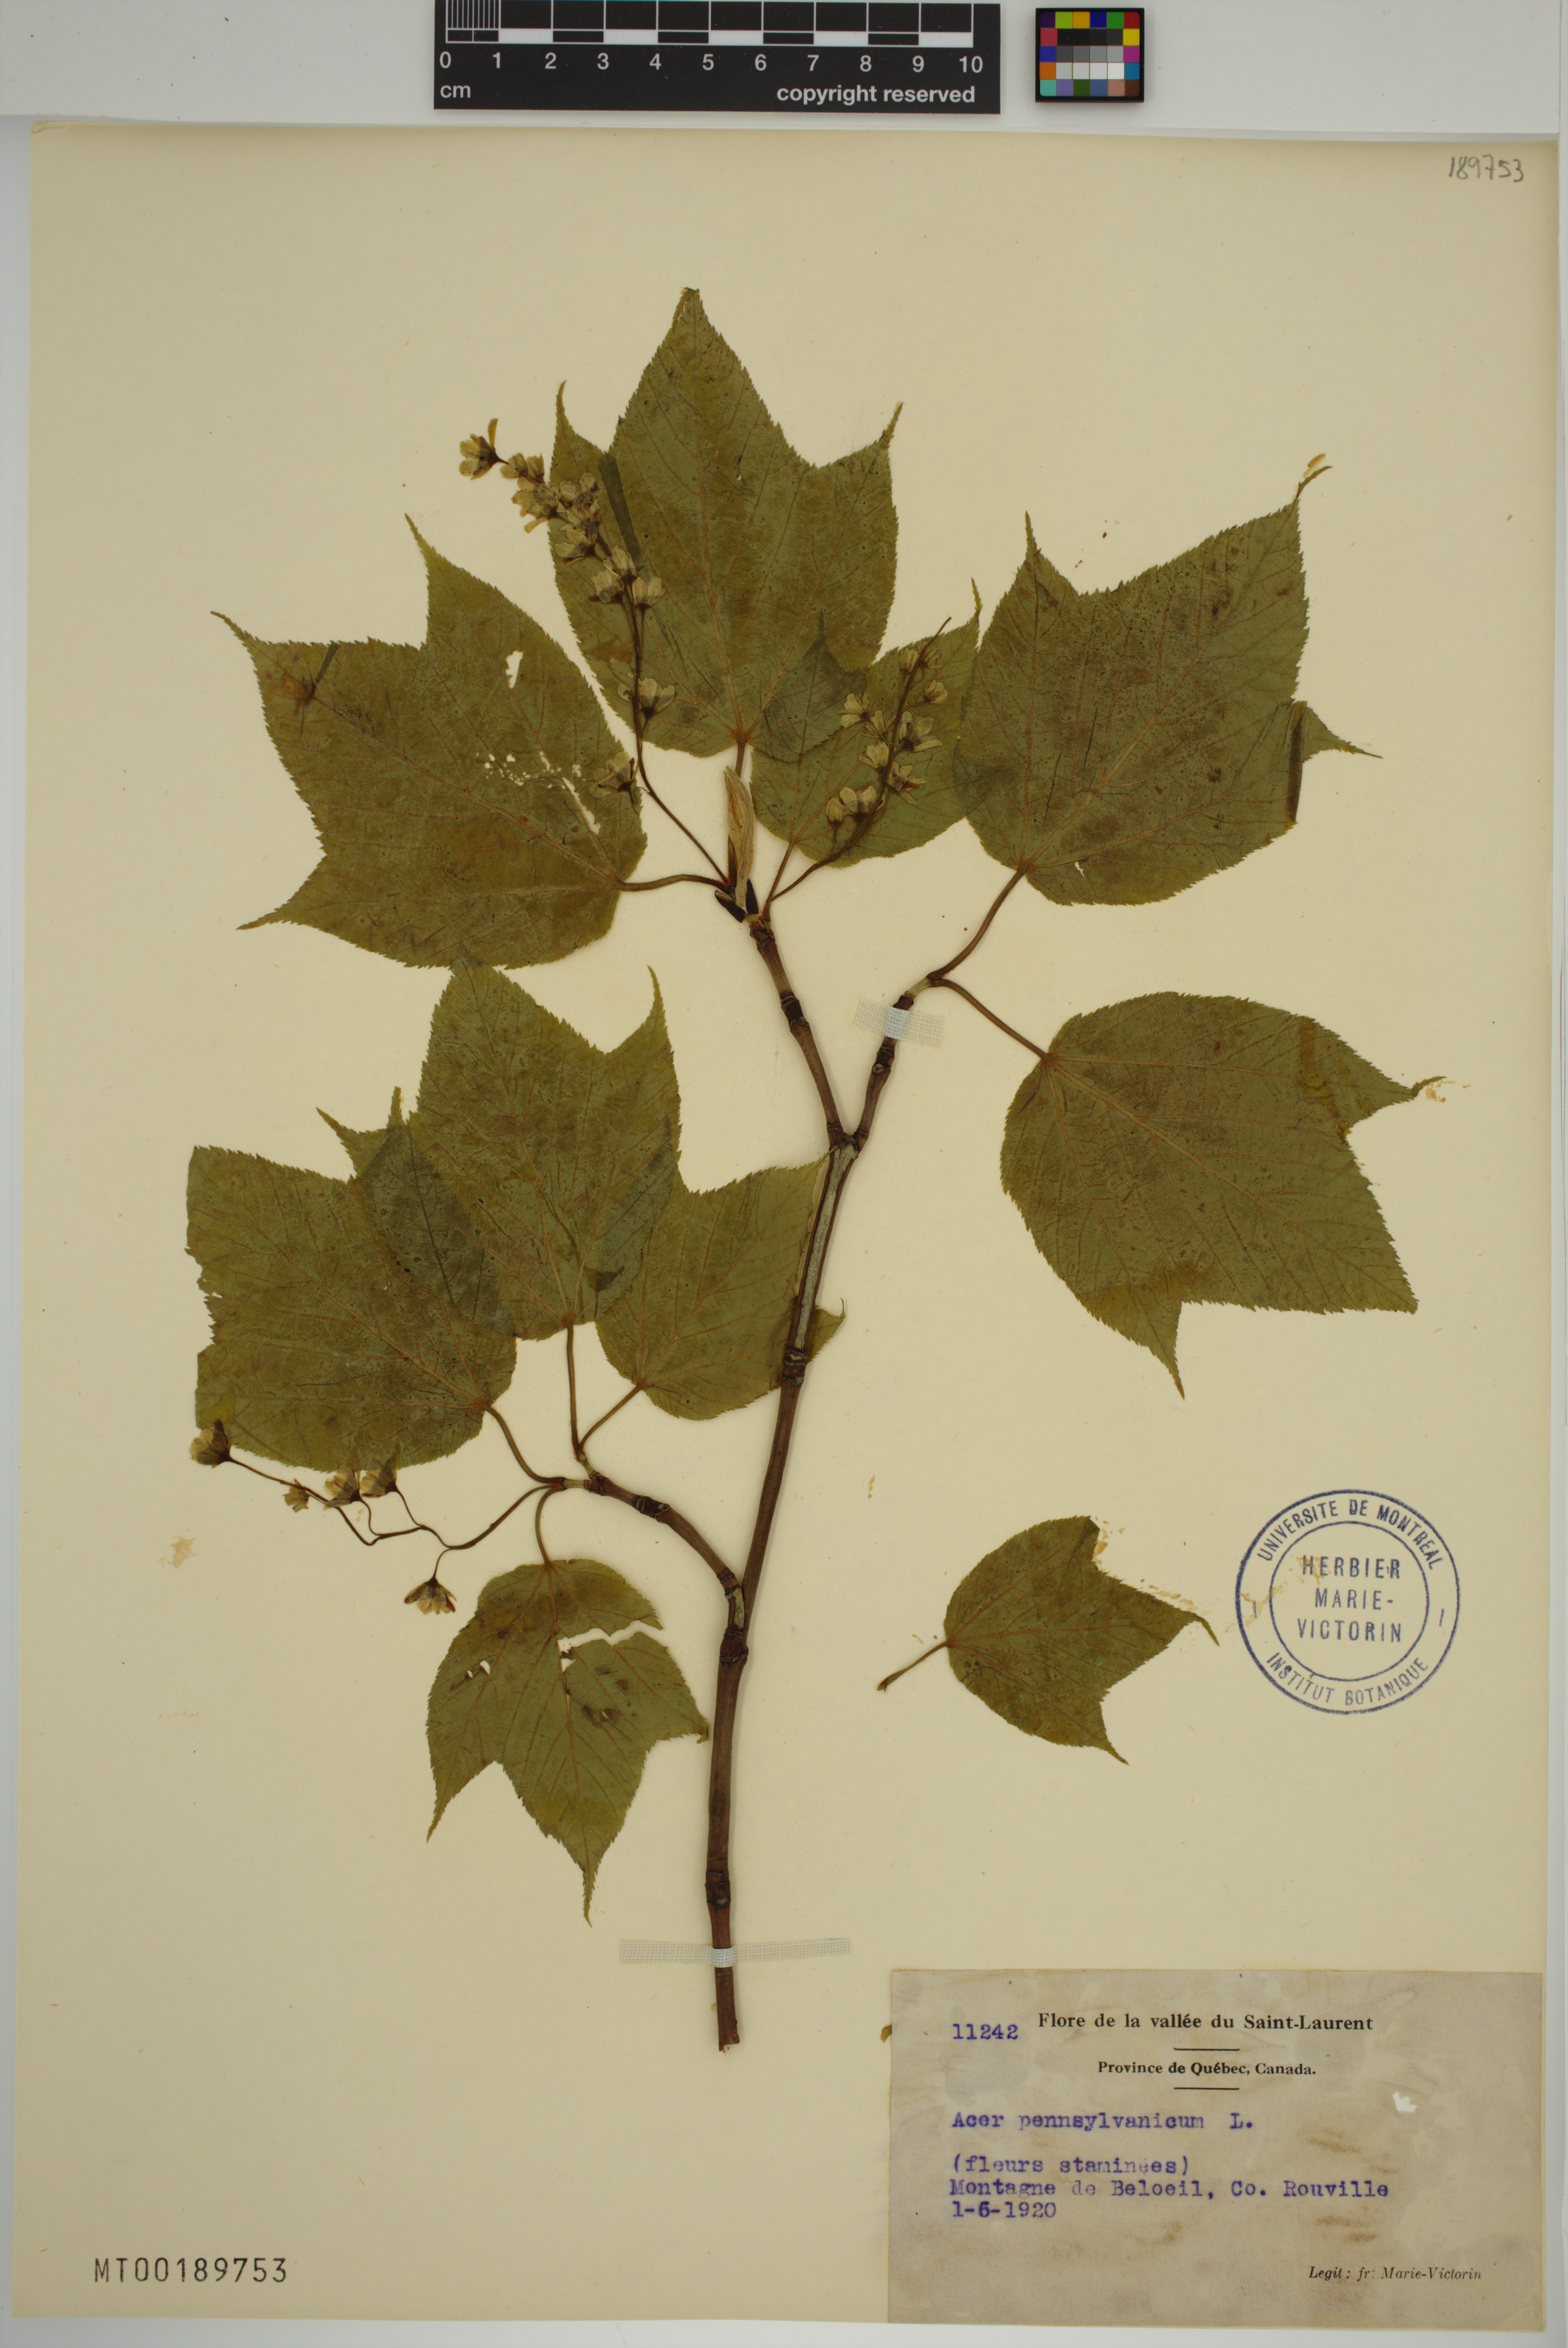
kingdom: Plantae
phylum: Tracheophyta
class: Magnoliopsida
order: Sapindales
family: Sapindaceae
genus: Acer
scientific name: Acer pensylvanicum
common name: Moosewood
